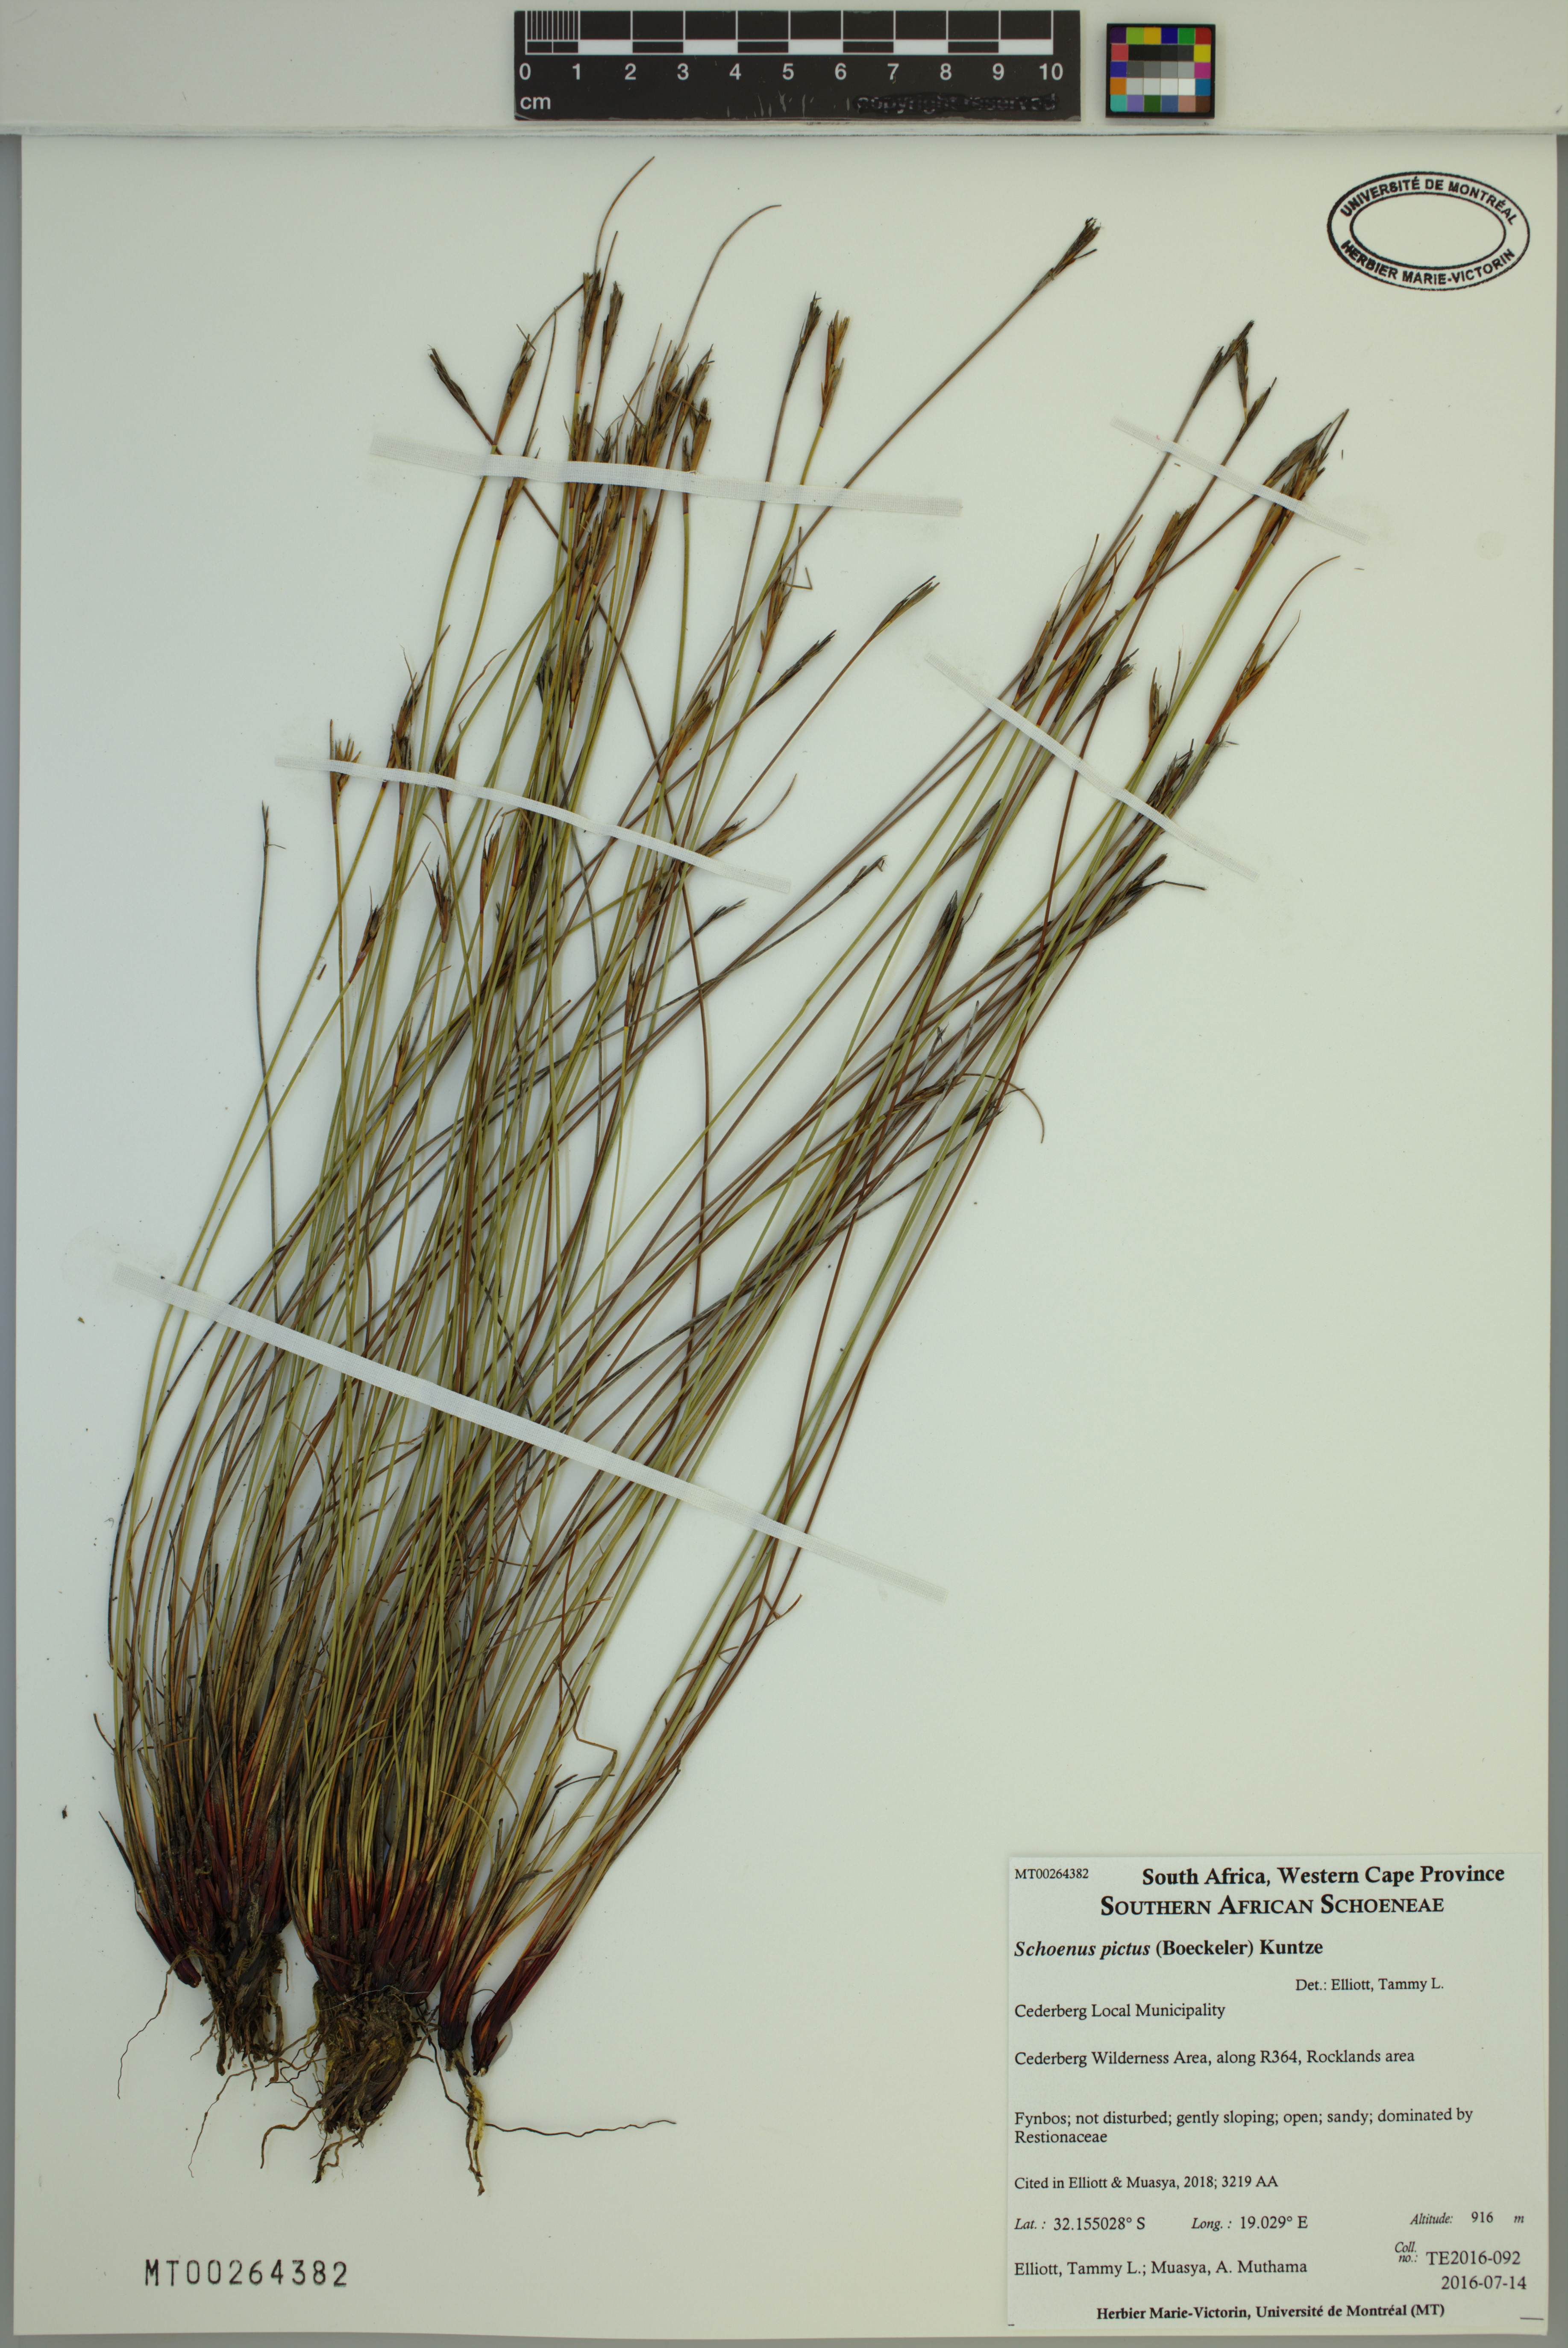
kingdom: Plantae
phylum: Tracheophyta
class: Liliopsida
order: Poales
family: Cyperaceae
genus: Schoenus
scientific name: Schoenus pictus
